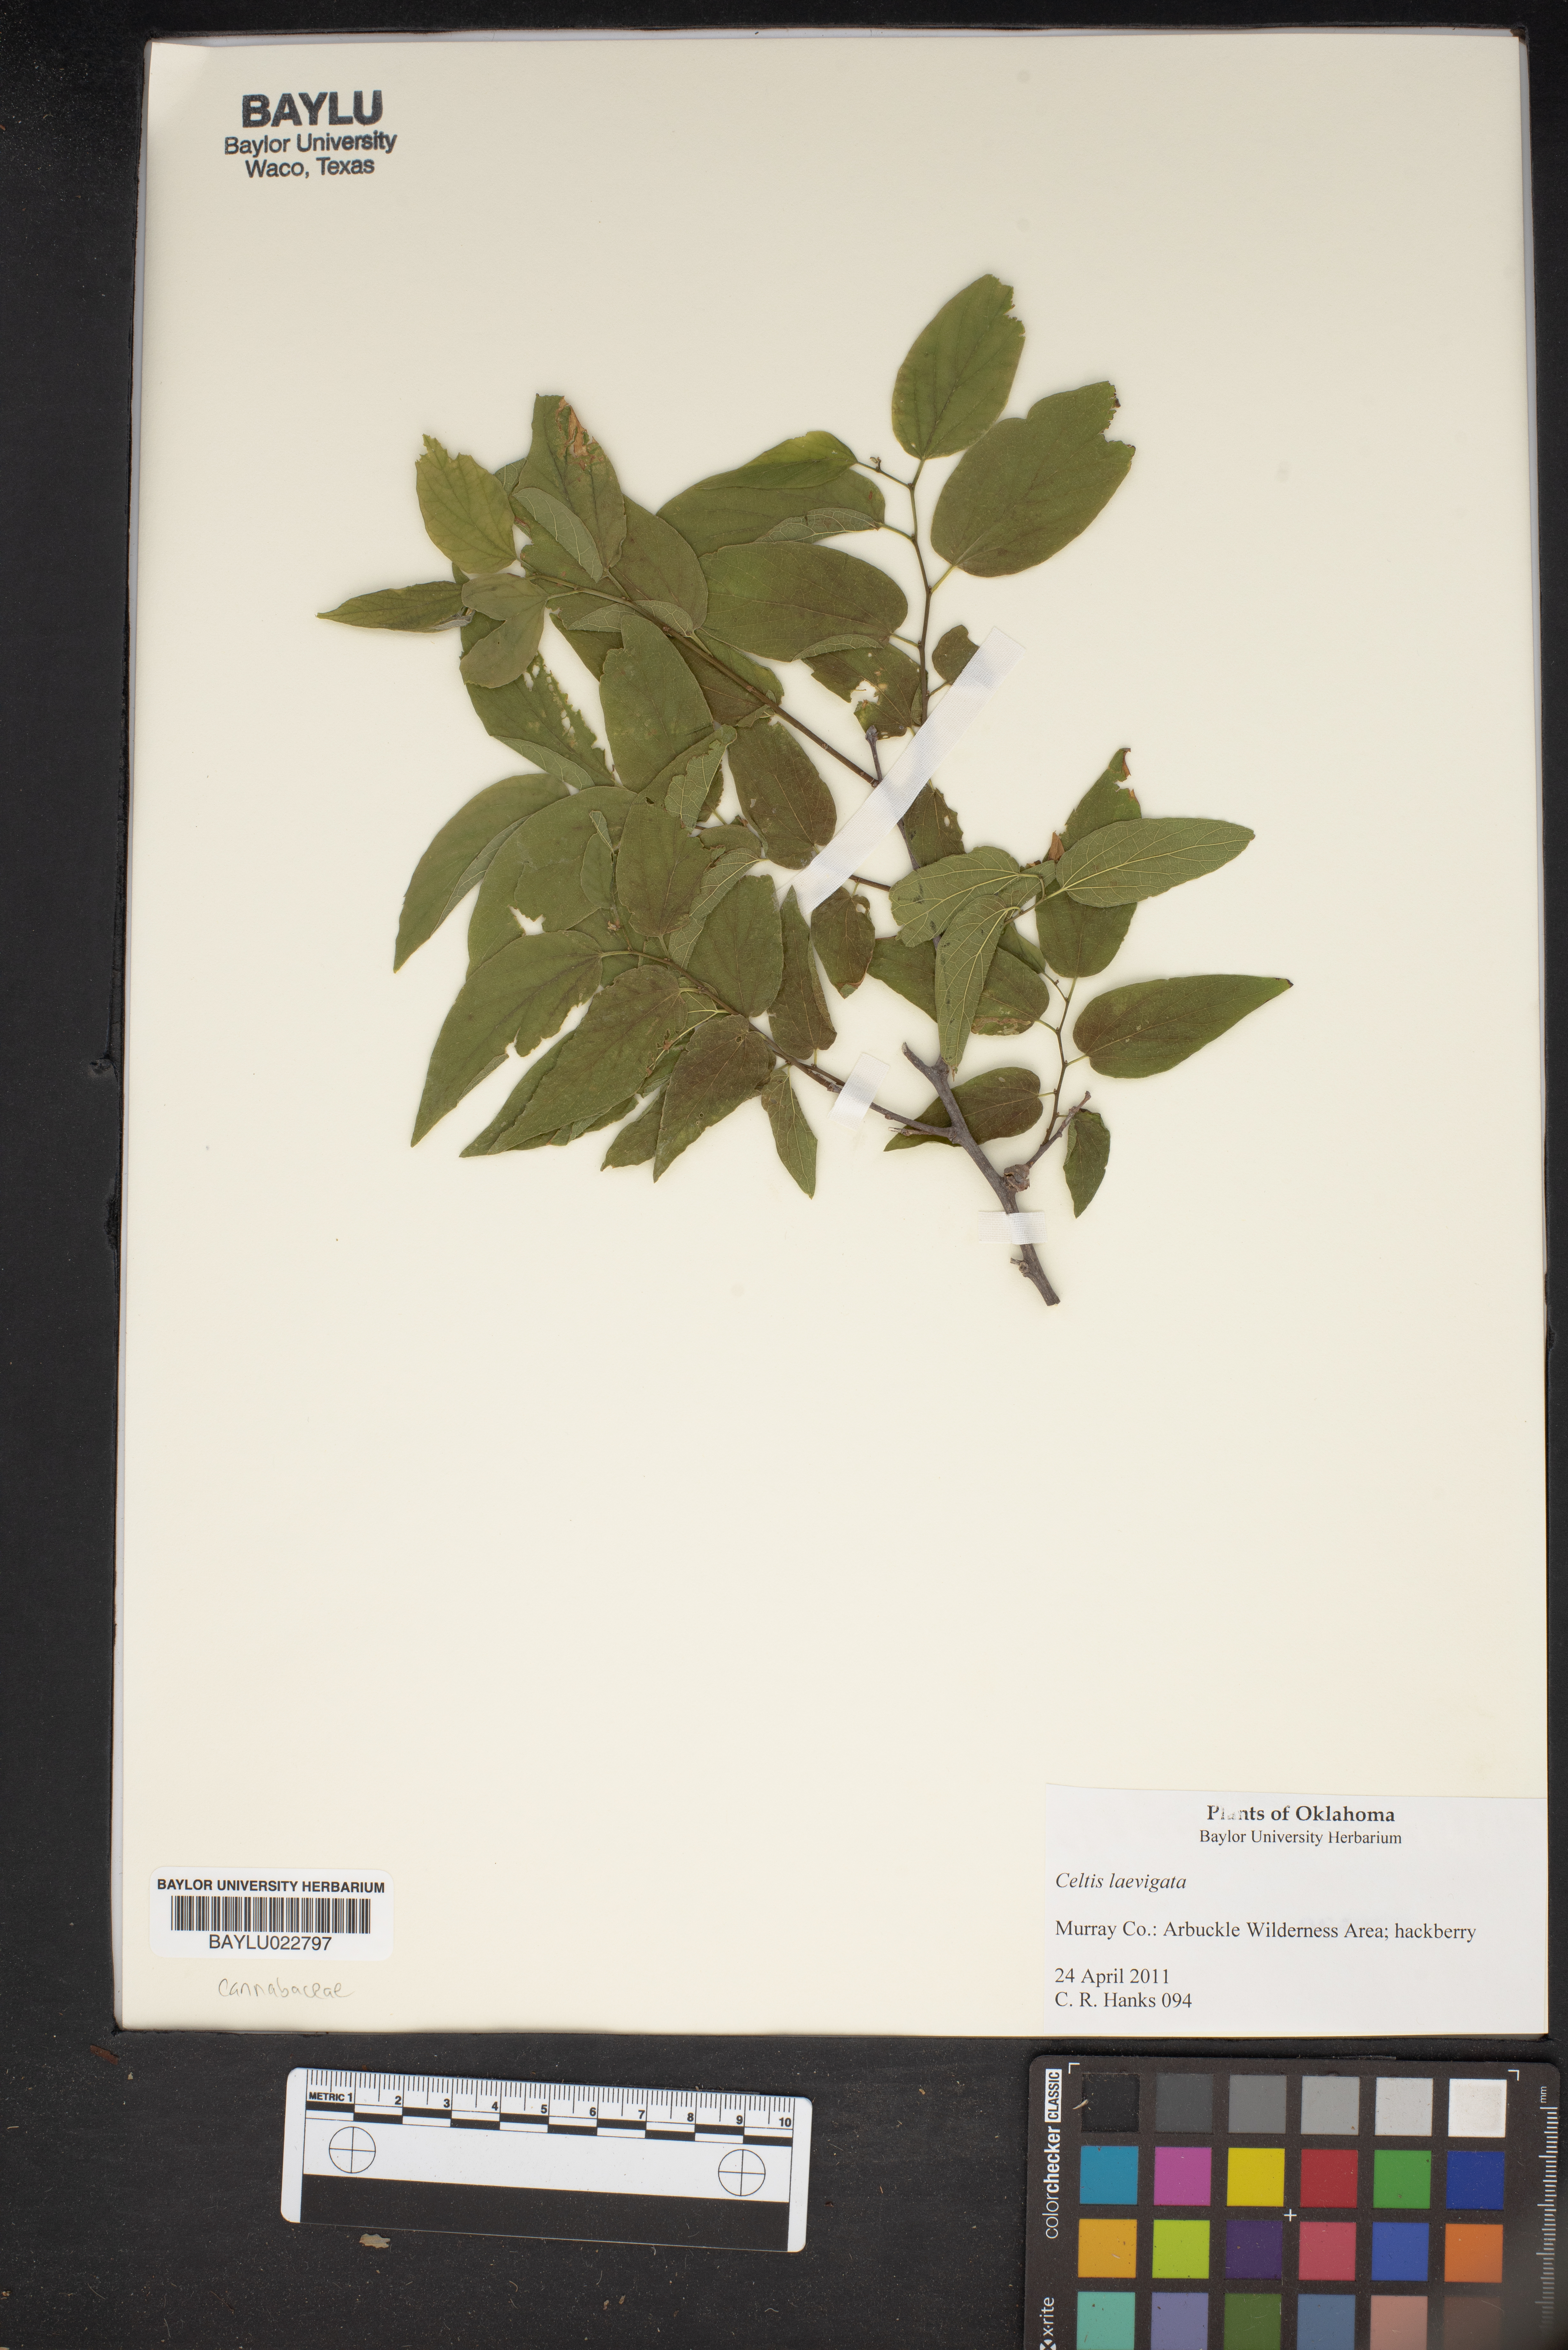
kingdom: Plantae
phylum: Tracheophyta
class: Magnoliopsida
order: Rosales
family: Cannabaceae
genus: Celtis
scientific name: Celtis laevigata
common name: Sugarberry
